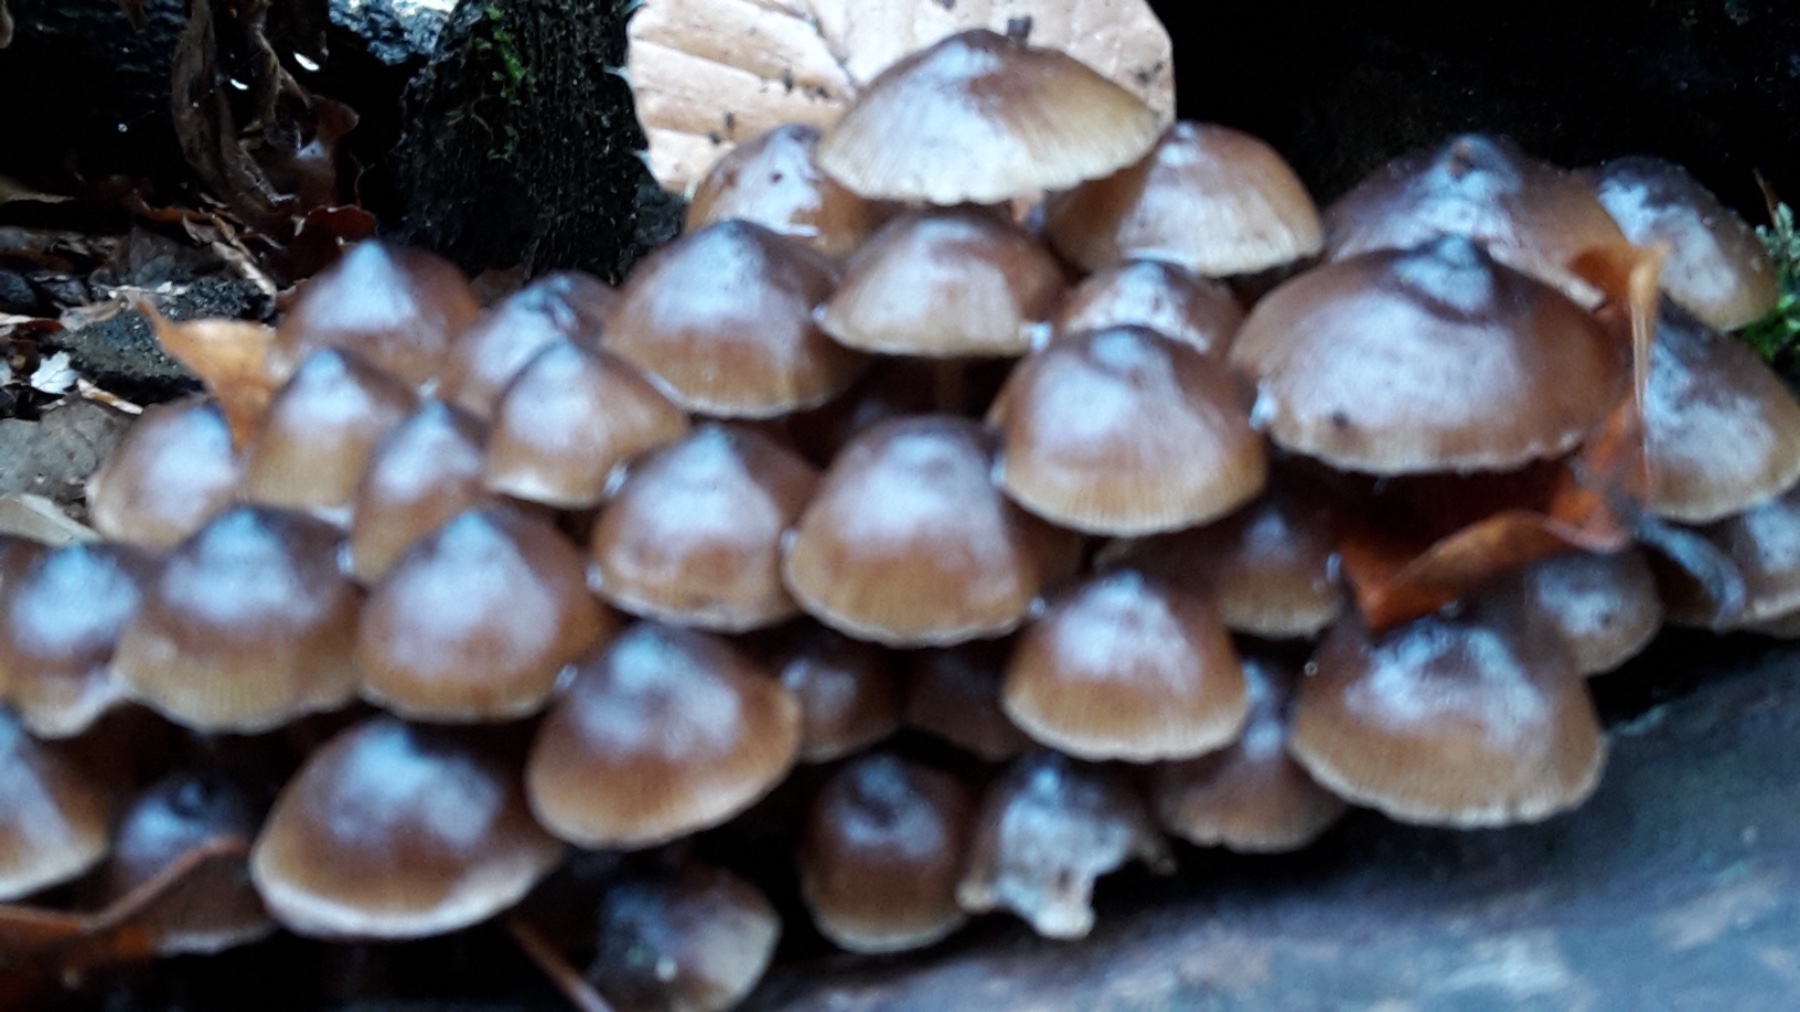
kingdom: Fungi
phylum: Basidiomycota
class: Agaricomycetes
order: Agaricales
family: Mycenaceae
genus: Mycena
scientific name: Mycena tintinnabulum
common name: vinter-huesvamp
